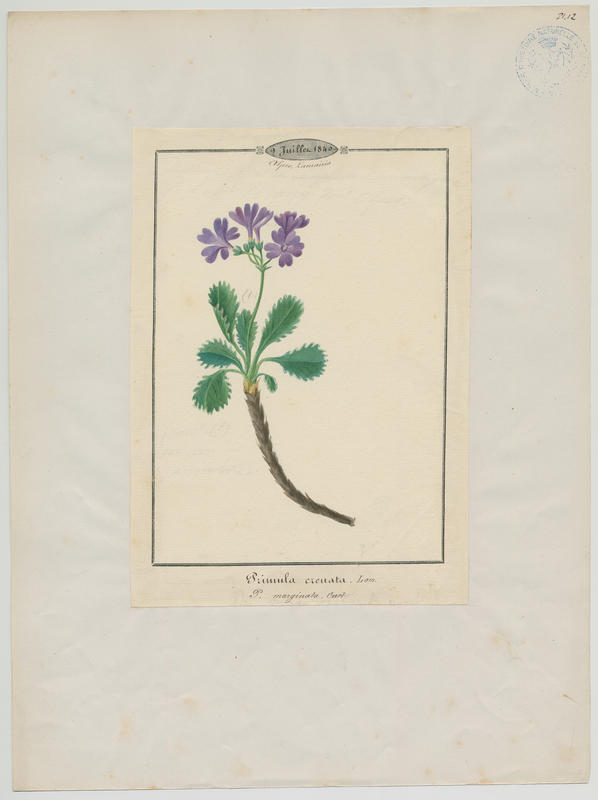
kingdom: Plantae
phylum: Tracheophyta
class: Magnoliopsida
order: Ericales
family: Primulaceae
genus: Primula
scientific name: Primula marginata
